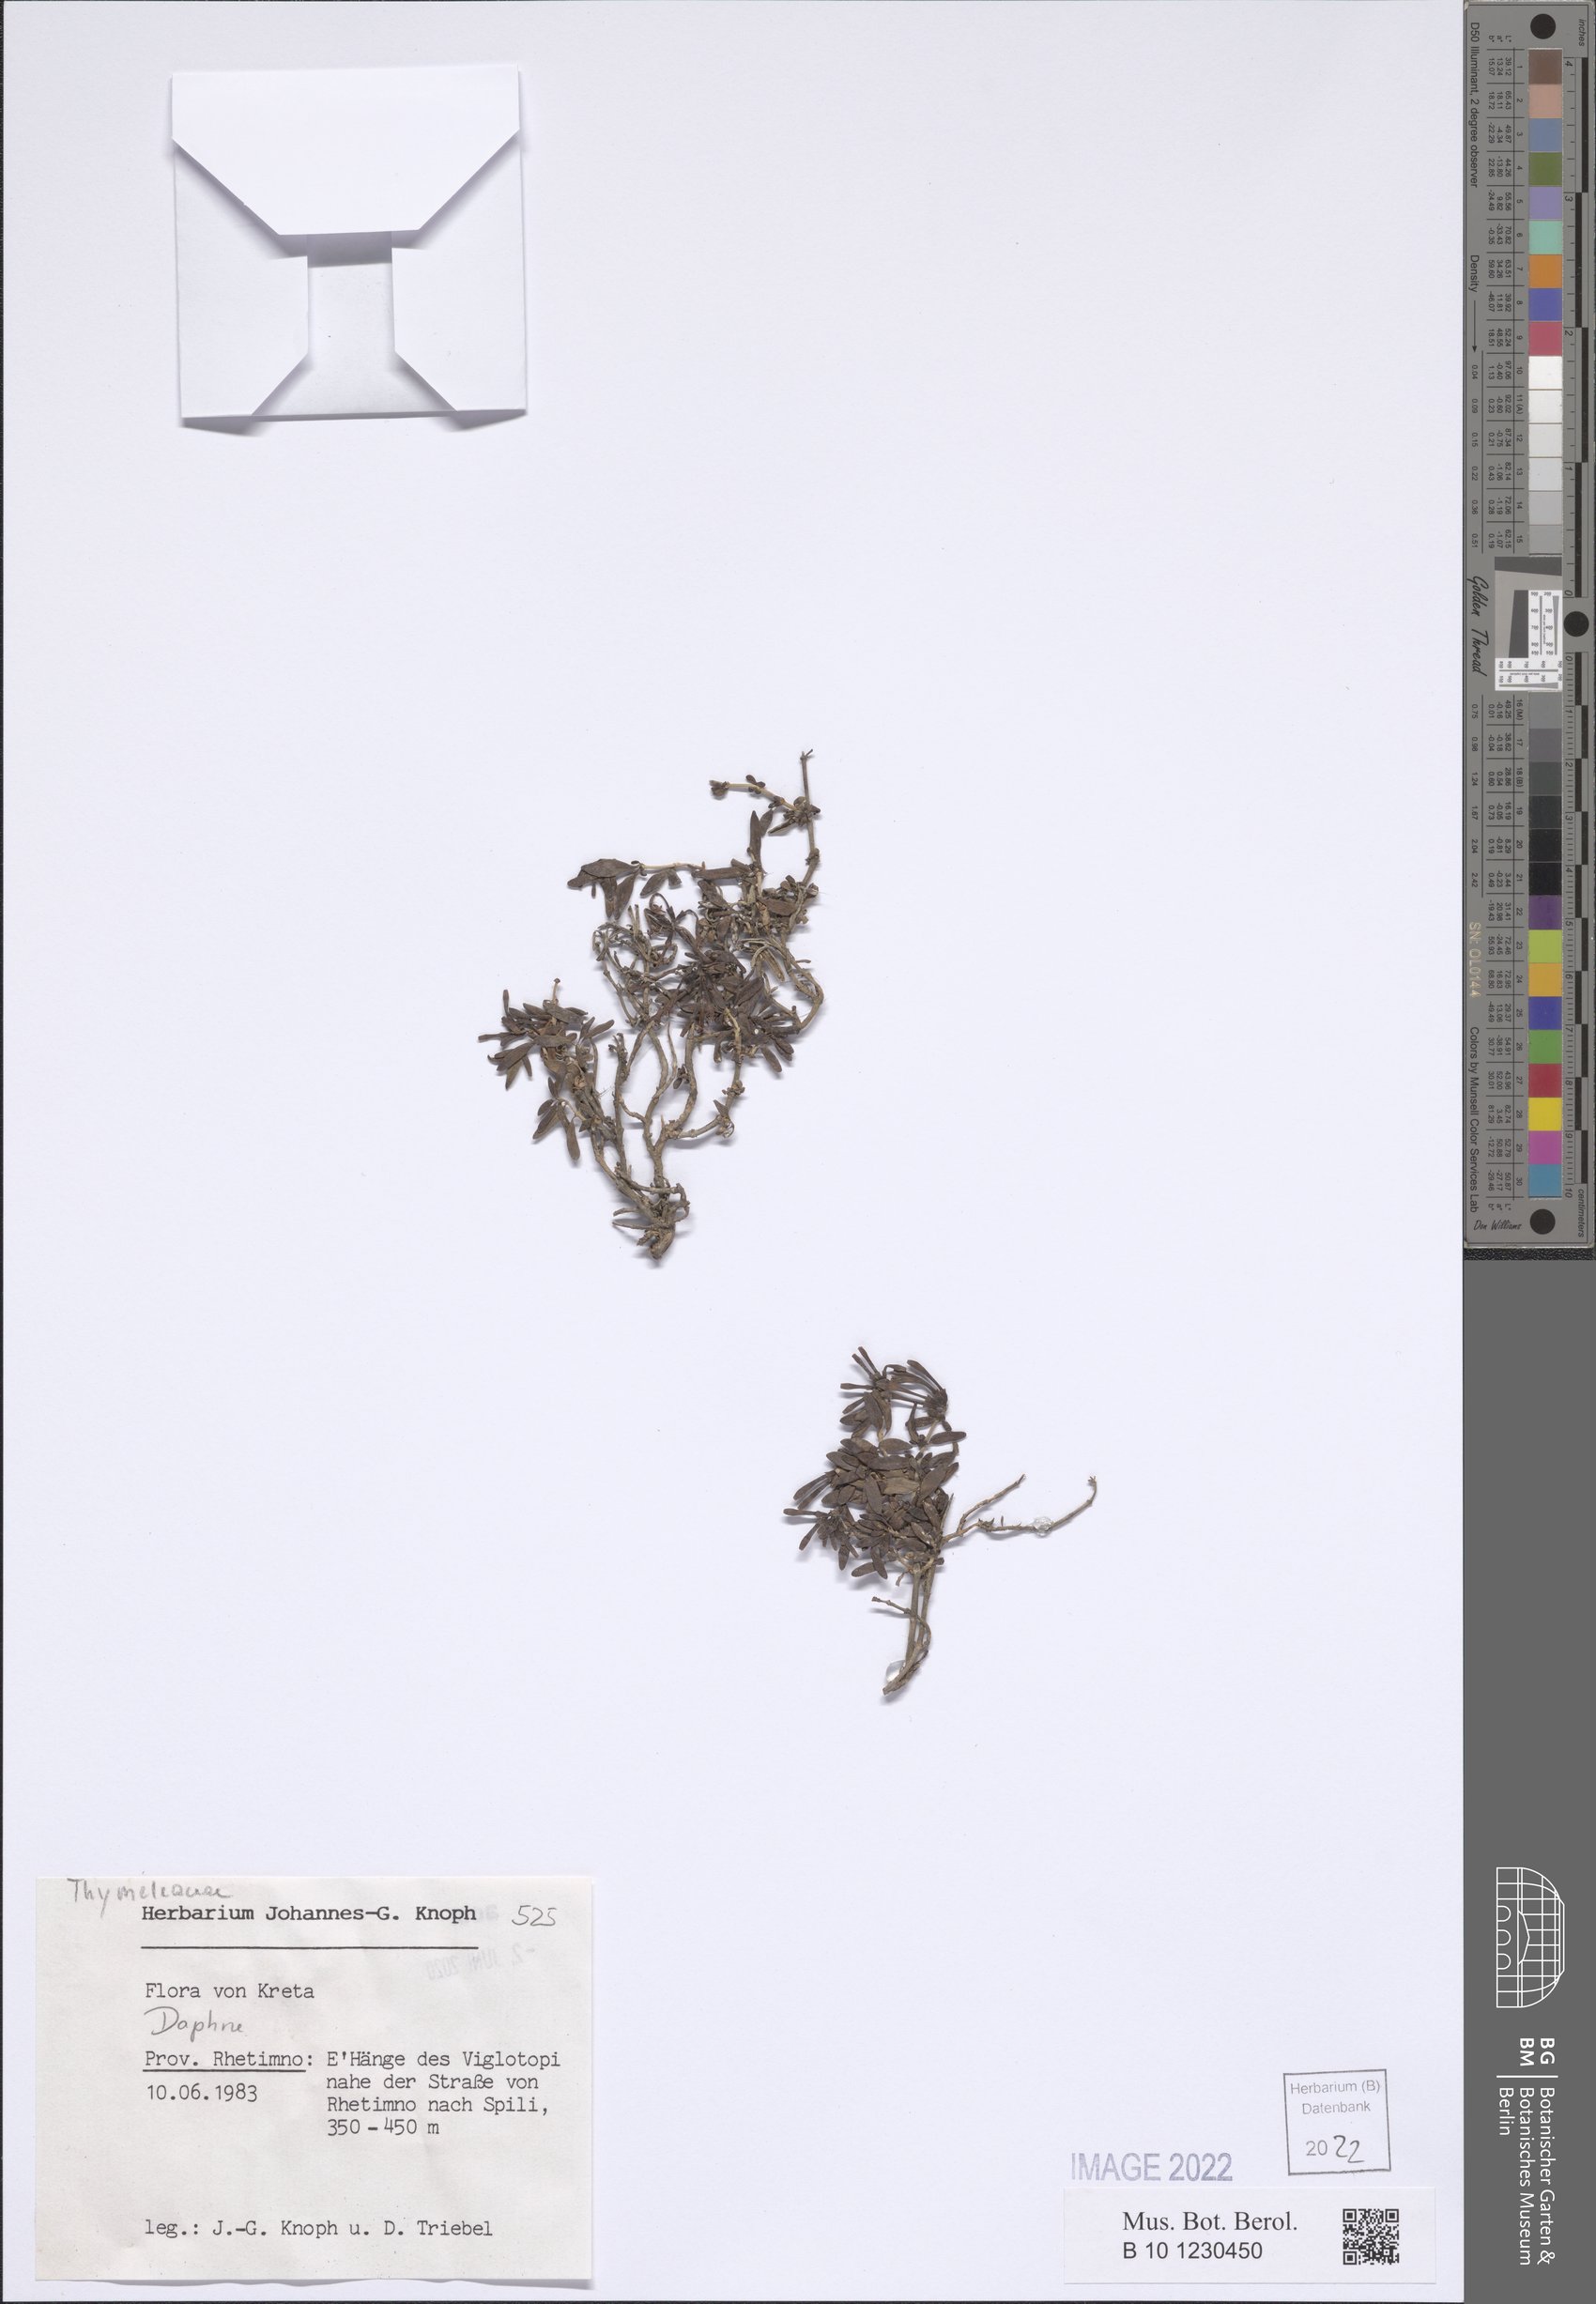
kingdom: Plantae
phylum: Tracheophyta
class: Magnoliopsida
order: Malvales
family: Thymelaeaceae
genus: Daphne
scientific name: Daphne
